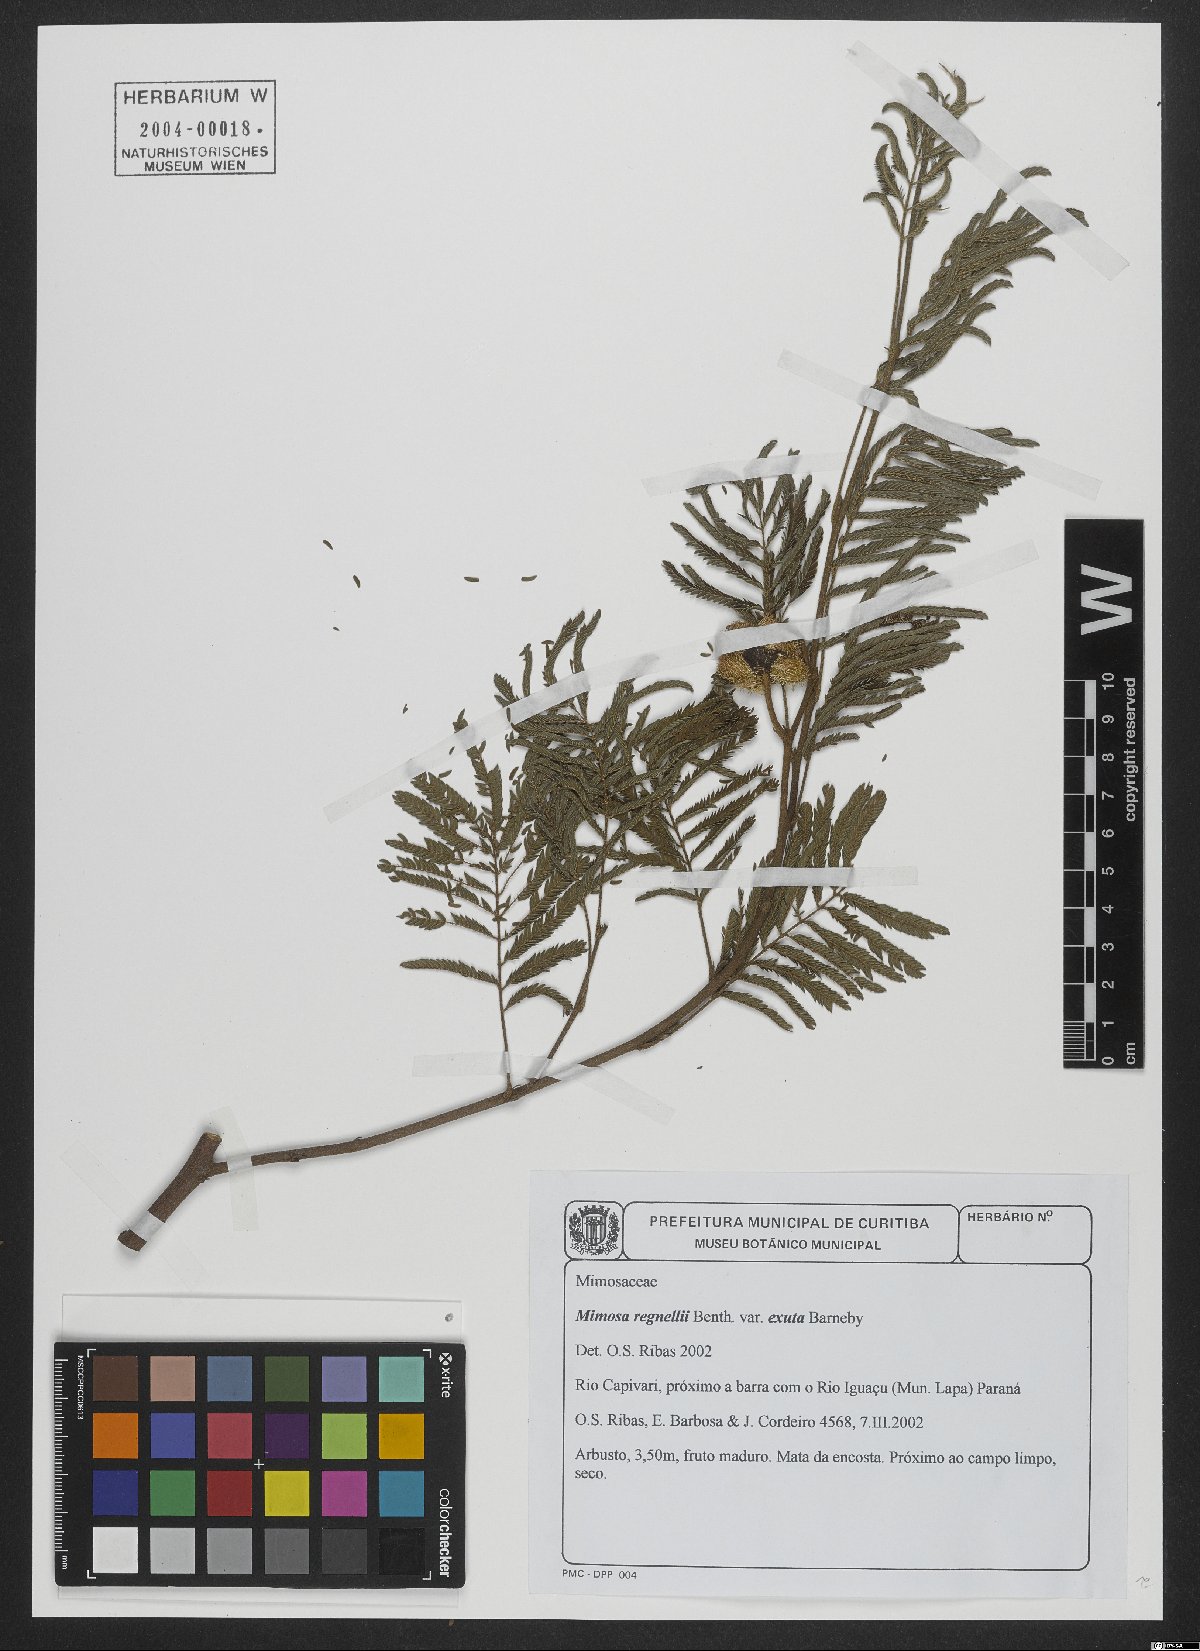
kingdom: Plantae
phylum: Tracheophyta
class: Magnoliopsida
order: Fabales
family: Fabaceae
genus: Mimosa
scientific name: Mimosa regnellii
